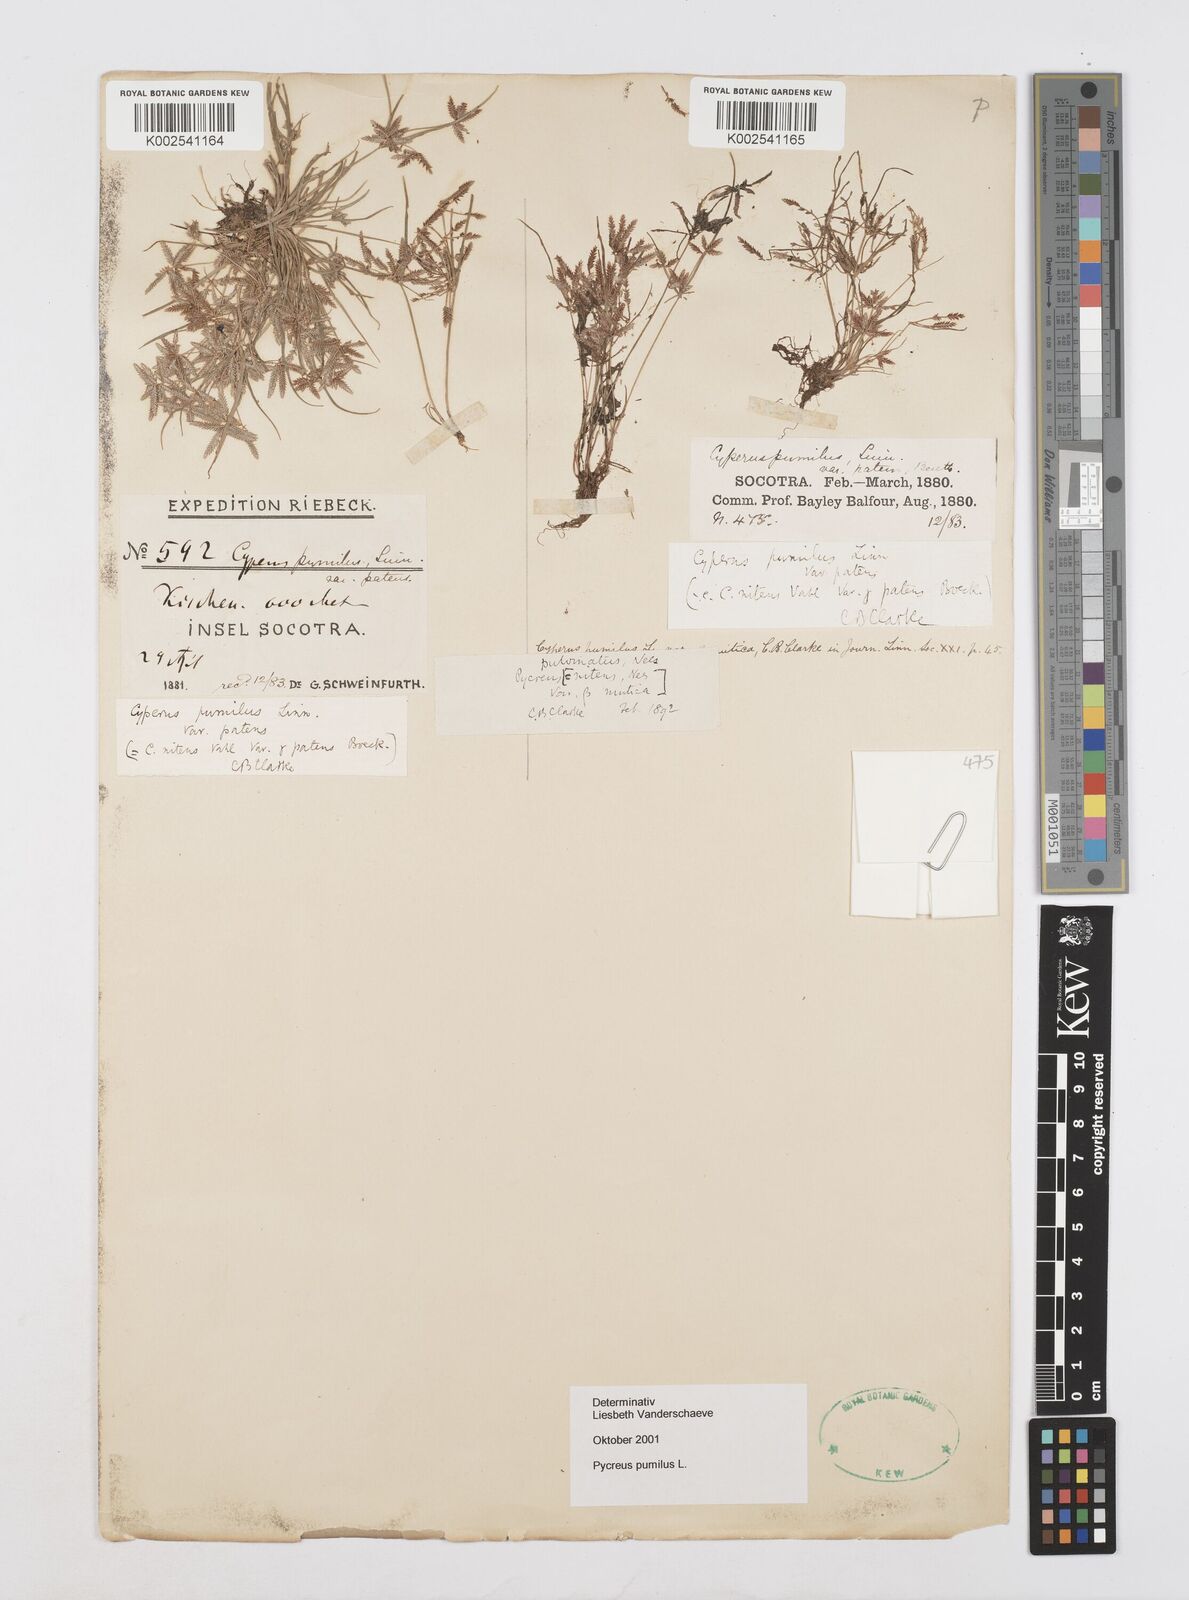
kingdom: Plantae
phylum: Tracheophyta
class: Liliopsida
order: Poales
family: Cyperaceae
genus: Cyperus
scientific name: Cyperus pumilus
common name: Low flatsedge
